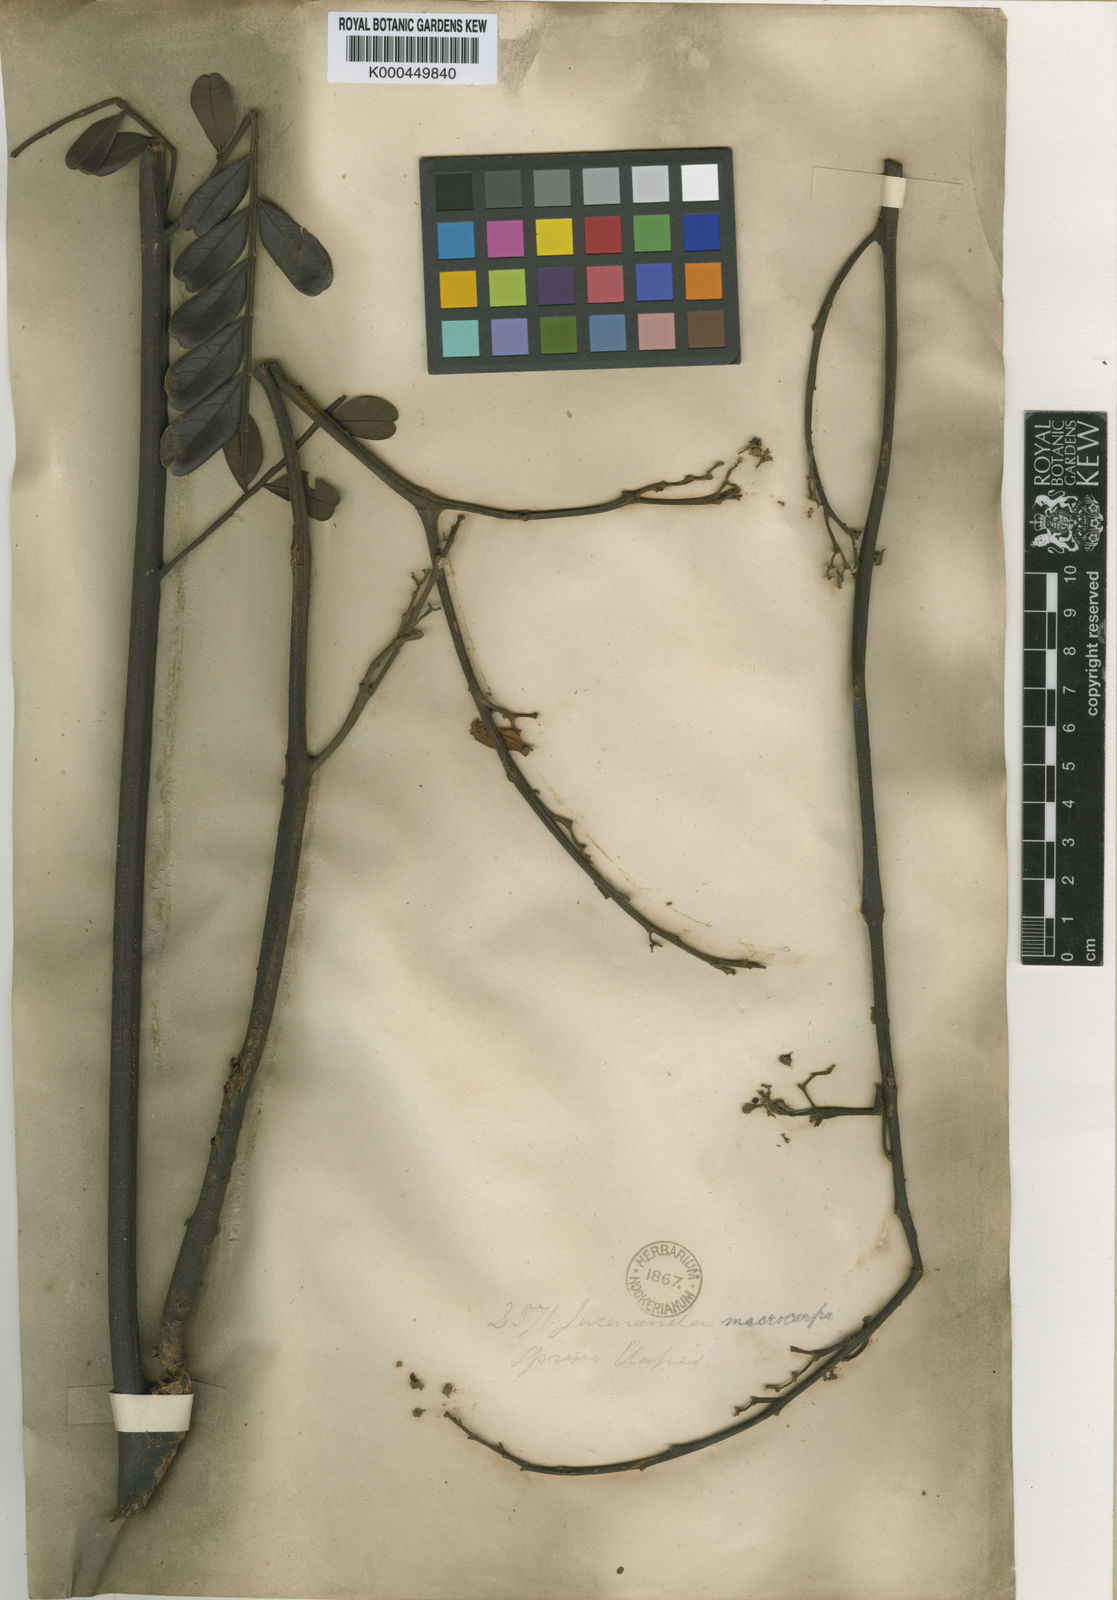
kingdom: Plantae
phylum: Tracheophyta
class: Magnoliopsida
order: Lamiales
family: Bignoniaceae
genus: Jacaranda
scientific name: Jacaranda macrocarpa
